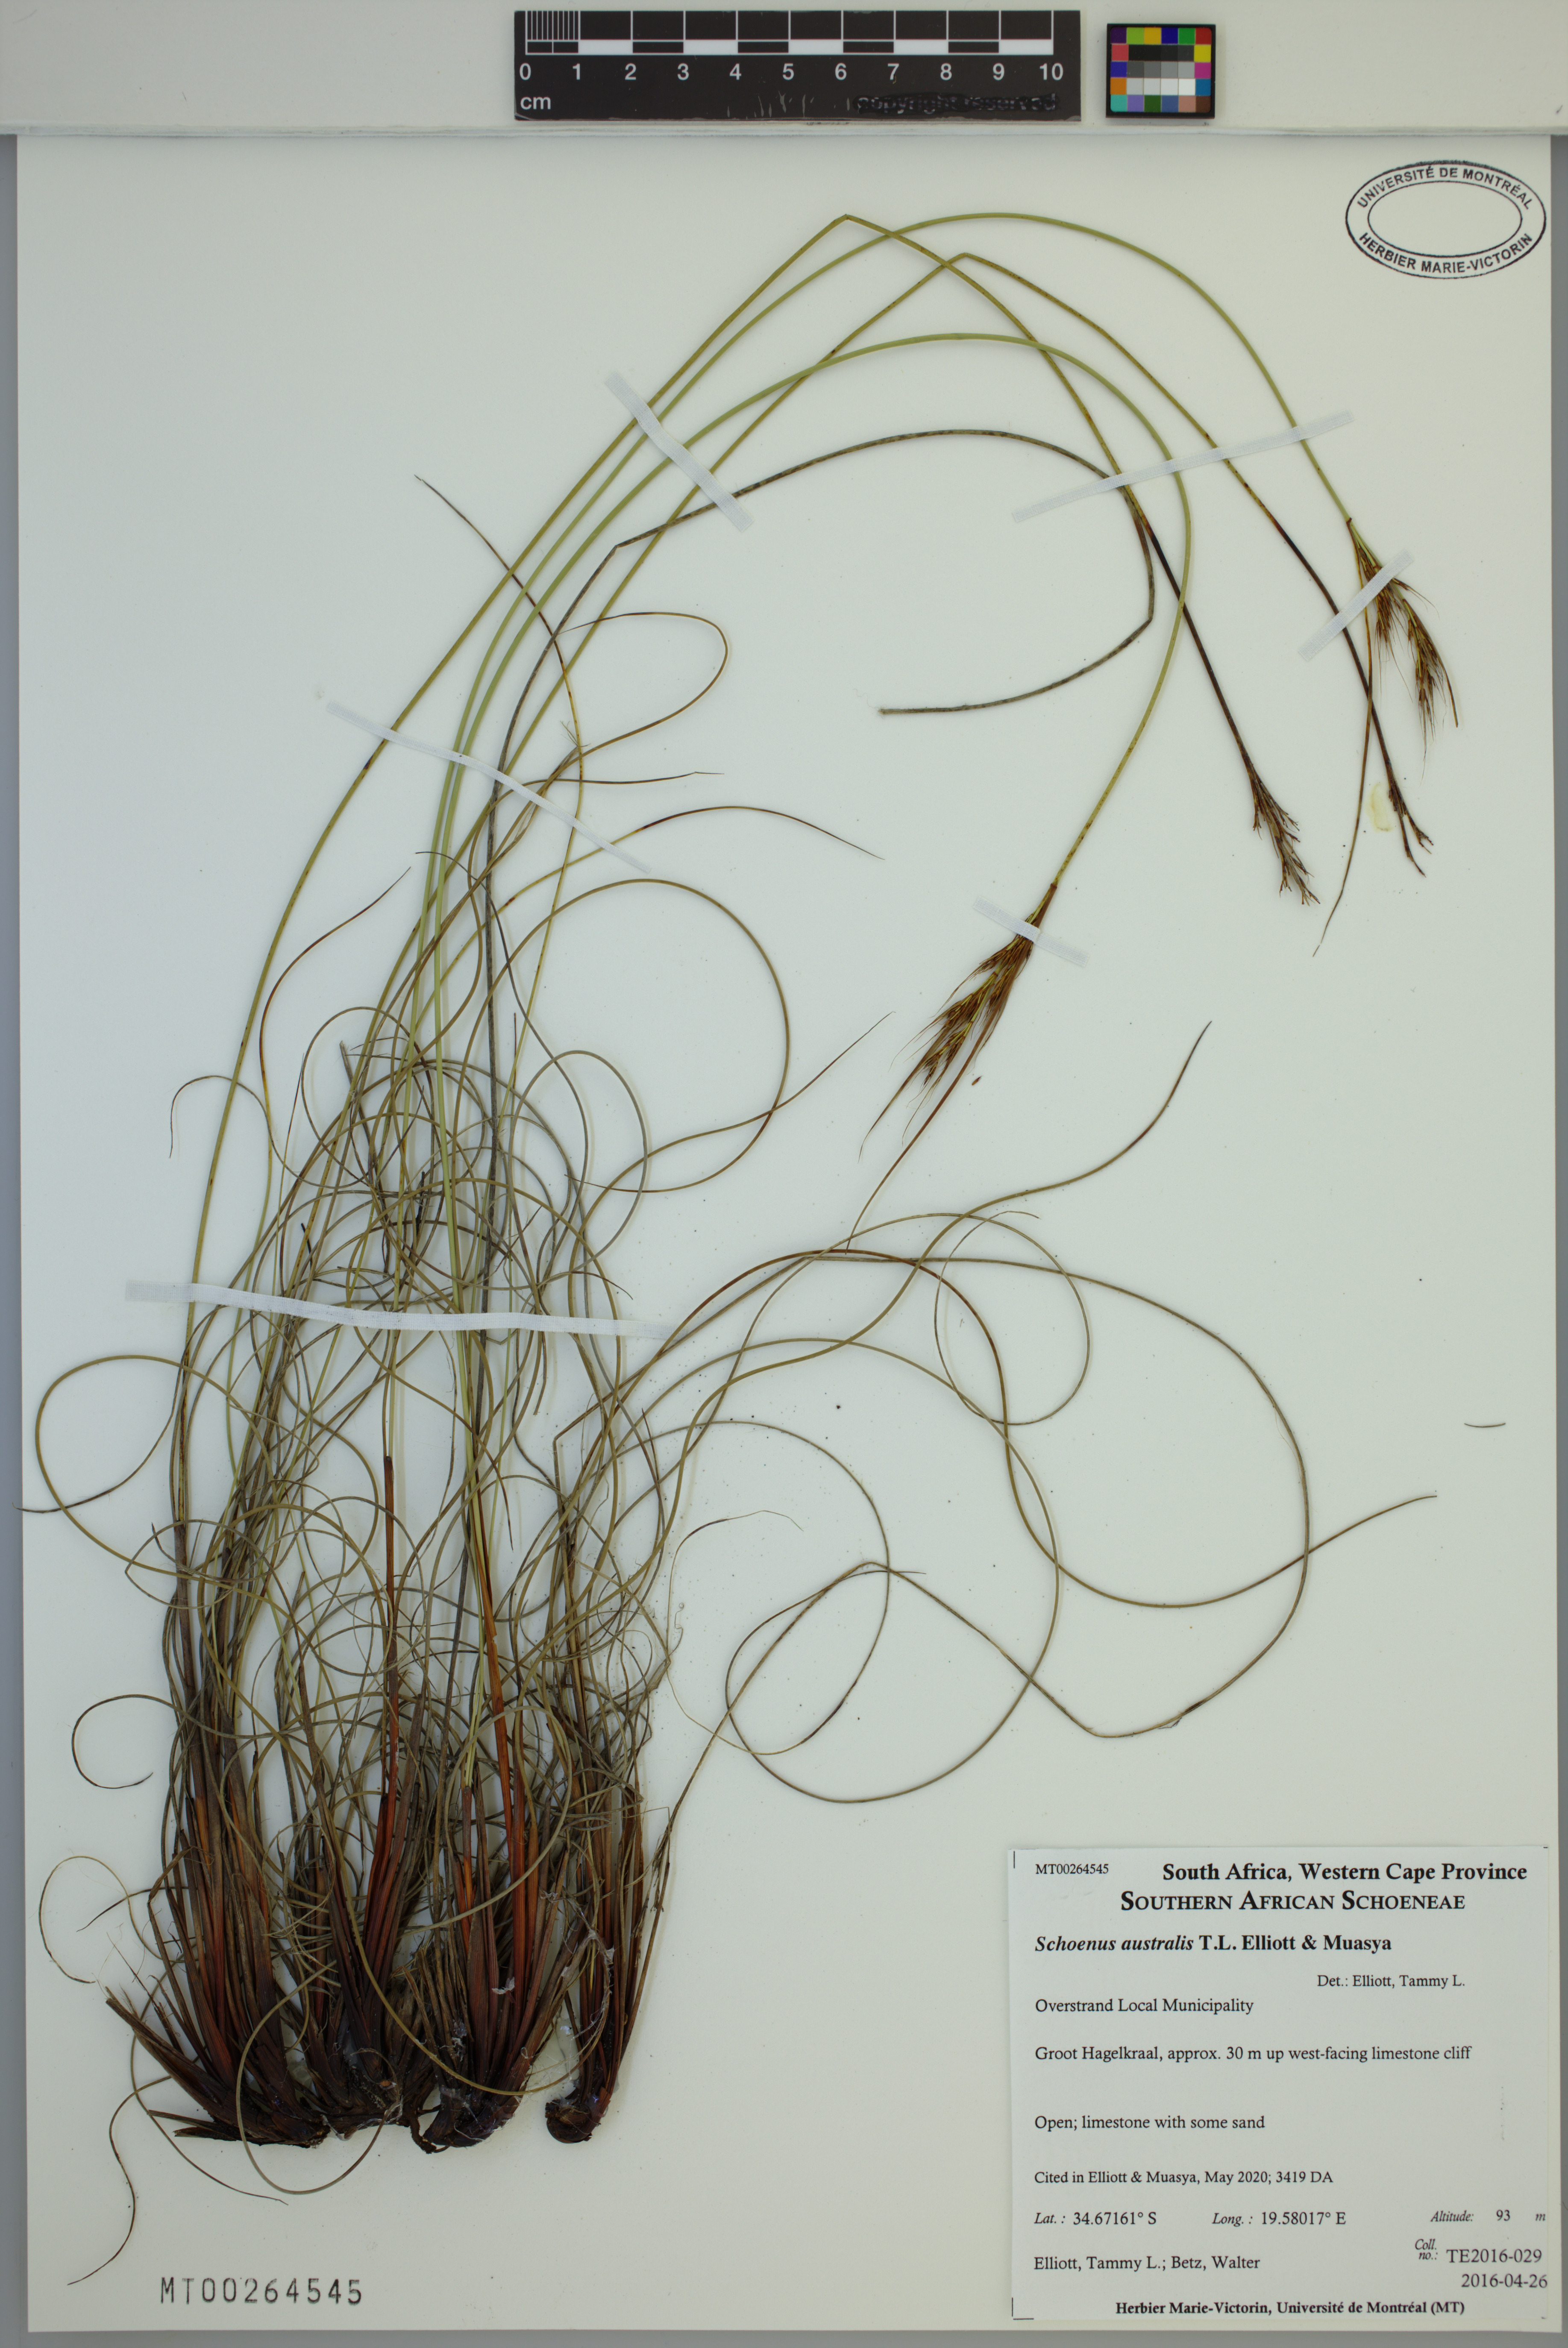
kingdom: Plantae
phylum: Tracheophyta
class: Liliopsida
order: Poales
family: Cyperaceae
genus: Schoenus
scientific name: Schoenus australis
